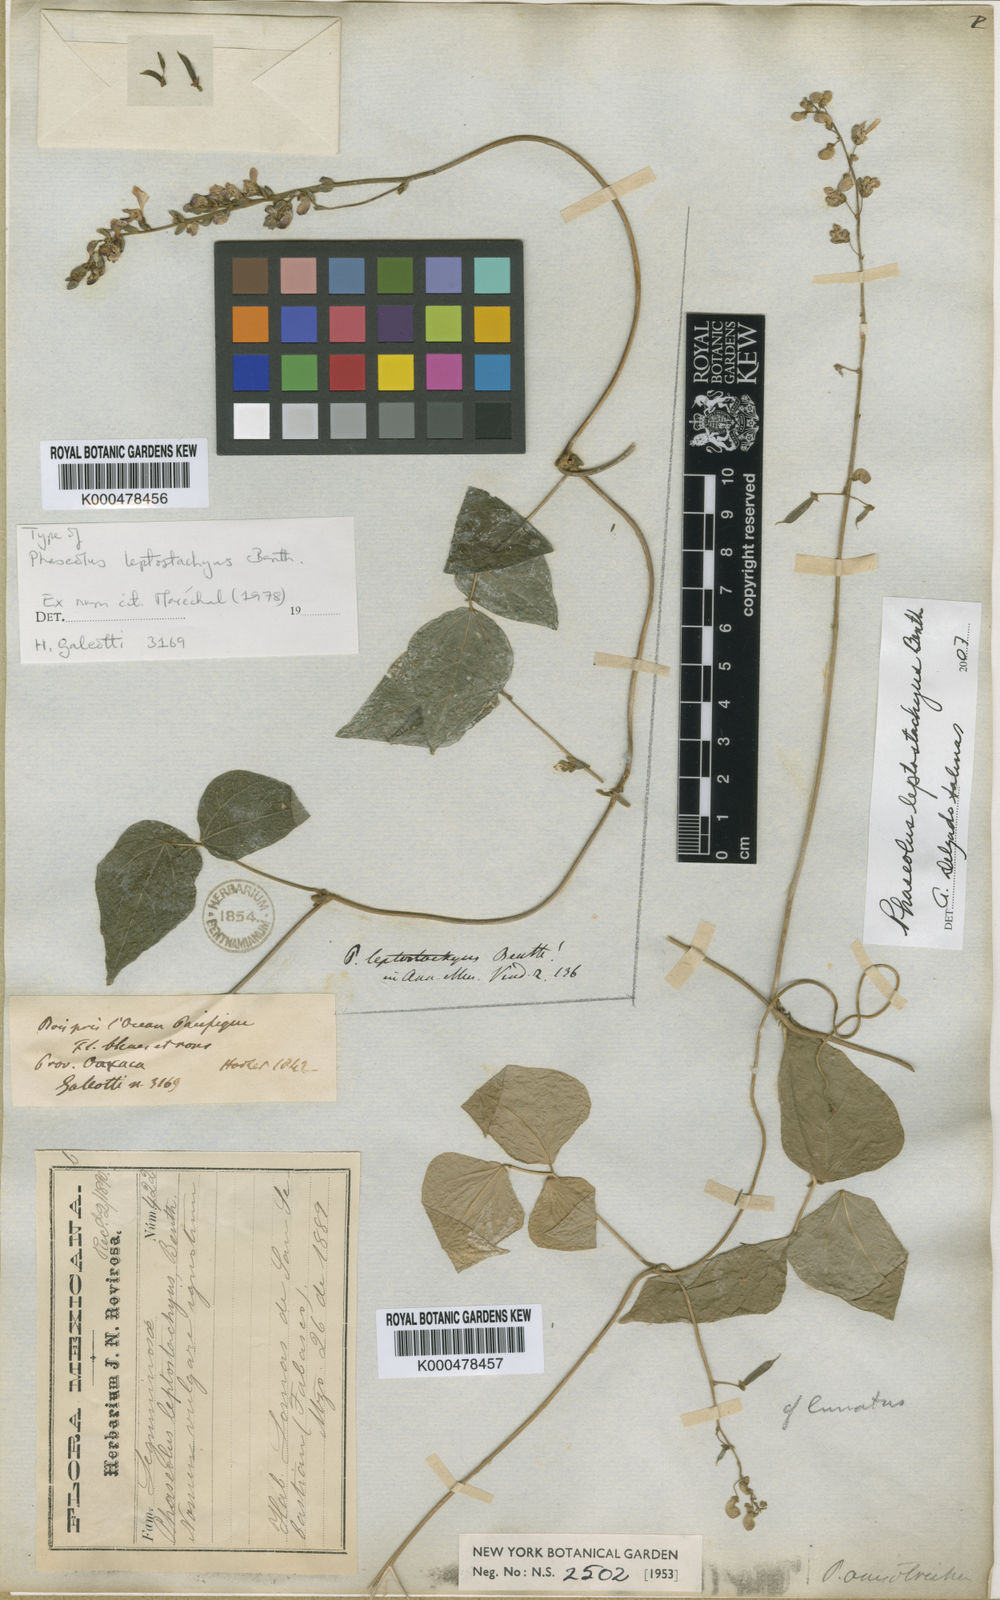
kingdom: Plantae
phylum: Tracheophyta
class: Magnoliopsida
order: Fabales
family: Fabaceae
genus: Phaseolus
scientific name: Phaseolus leptostachyus
